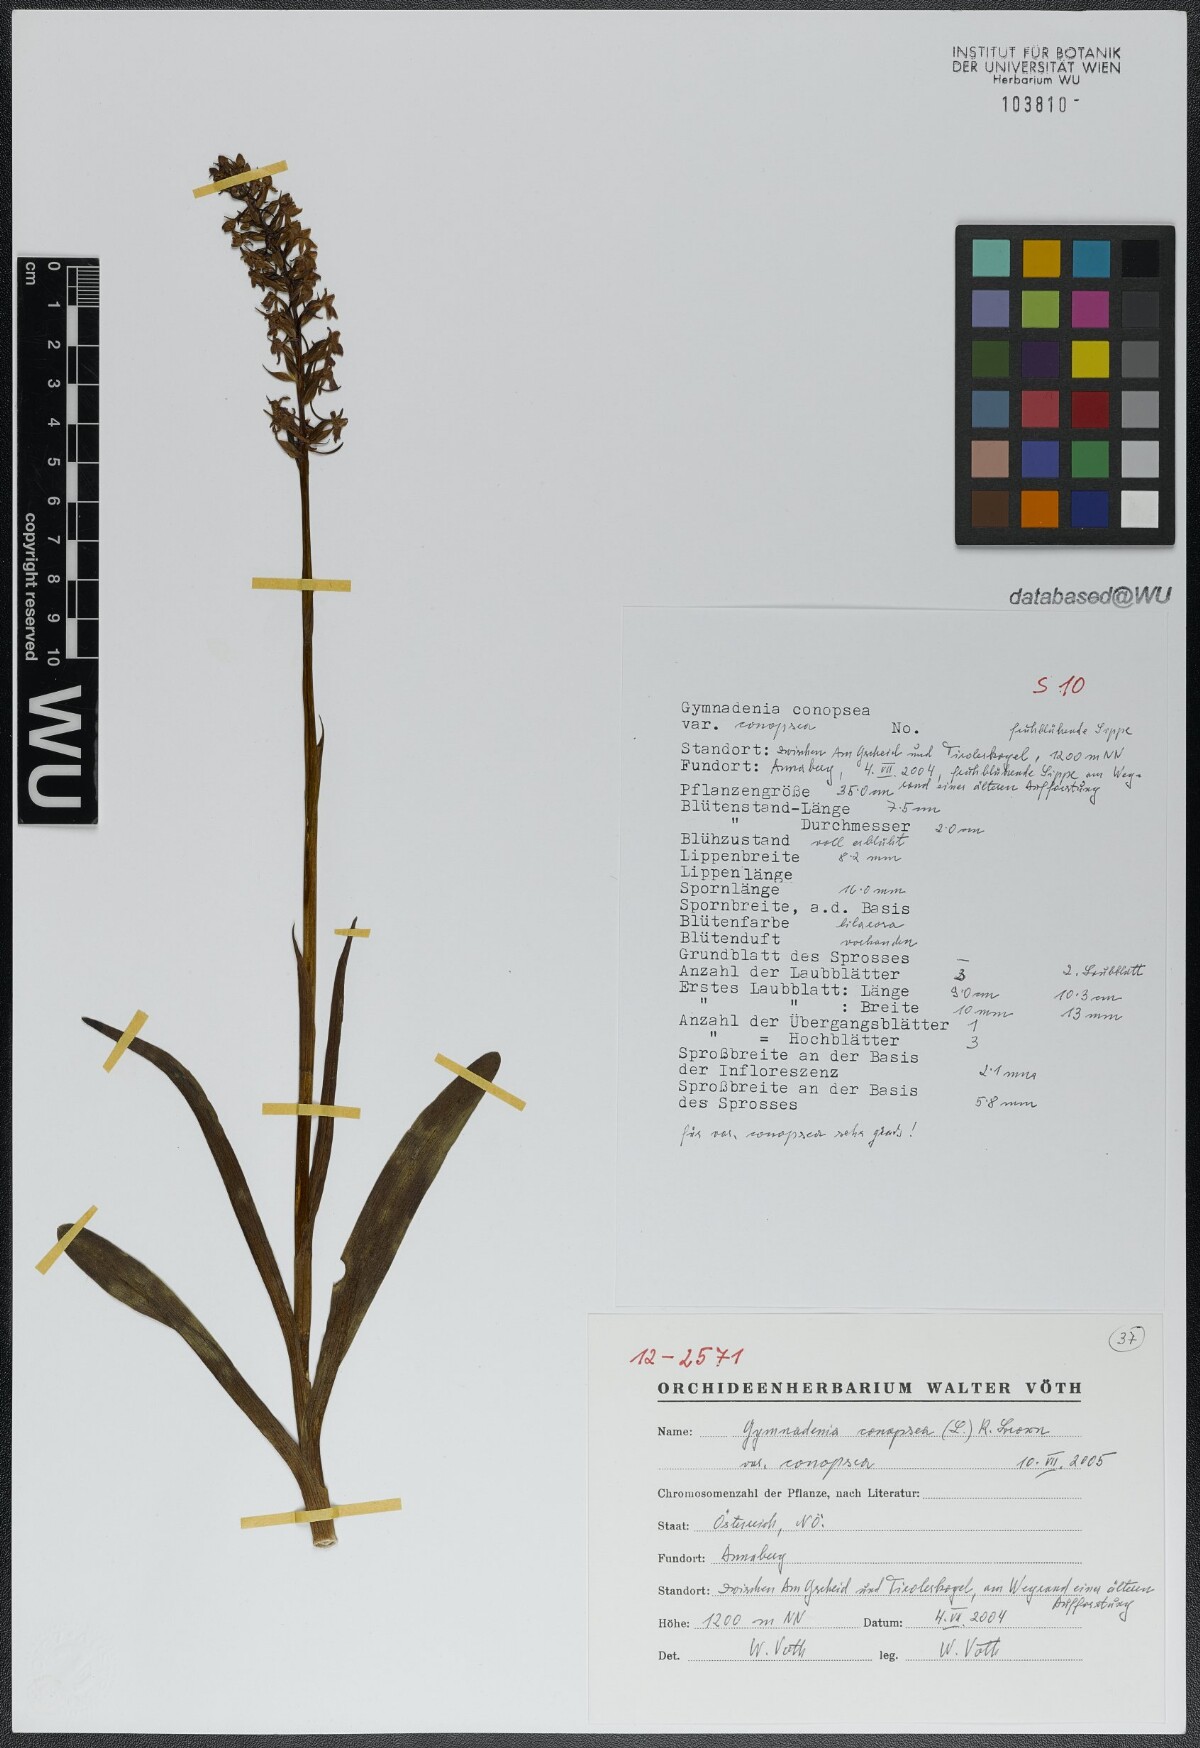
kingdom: Plantae
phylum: Tracheophyta
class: Liliopsida
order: Asparagales
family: Orchidaceae
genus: Gymnadenia
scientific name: Gymnadenia conopsea
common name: Fragrant orchid
